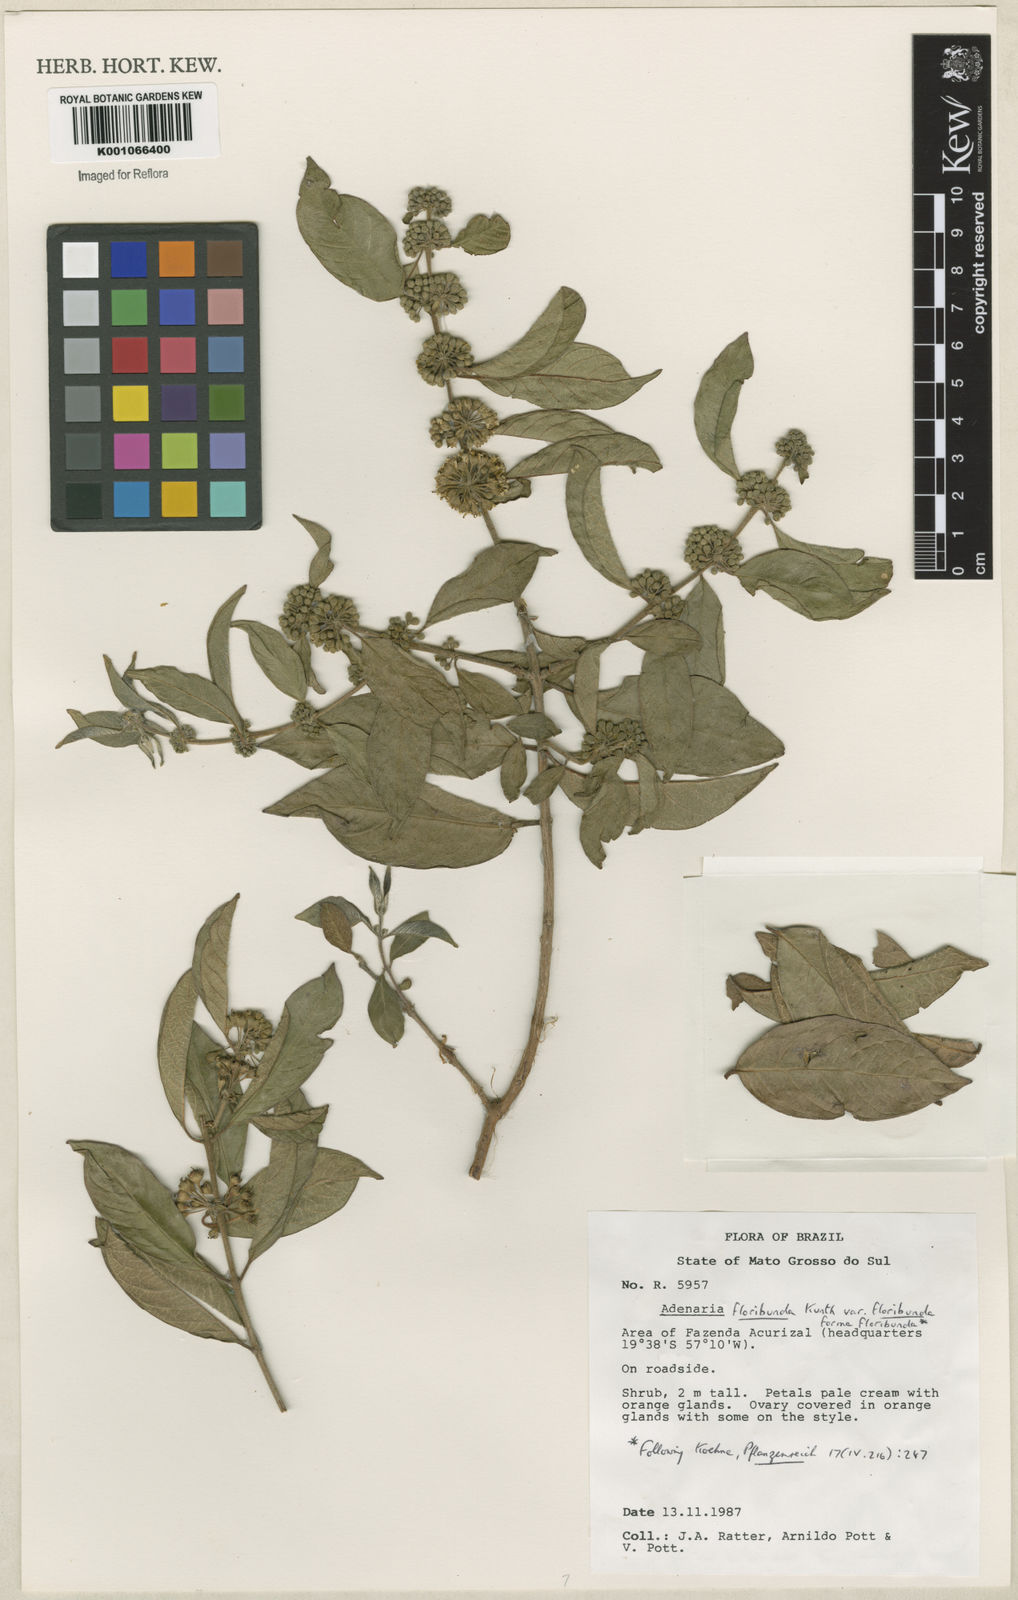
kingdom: Plantae
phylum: Tracheophyta
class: Magnoliopsida
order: Myrtales
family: Lythraceae
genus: Adenaria
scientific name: Adenaria floribunda
